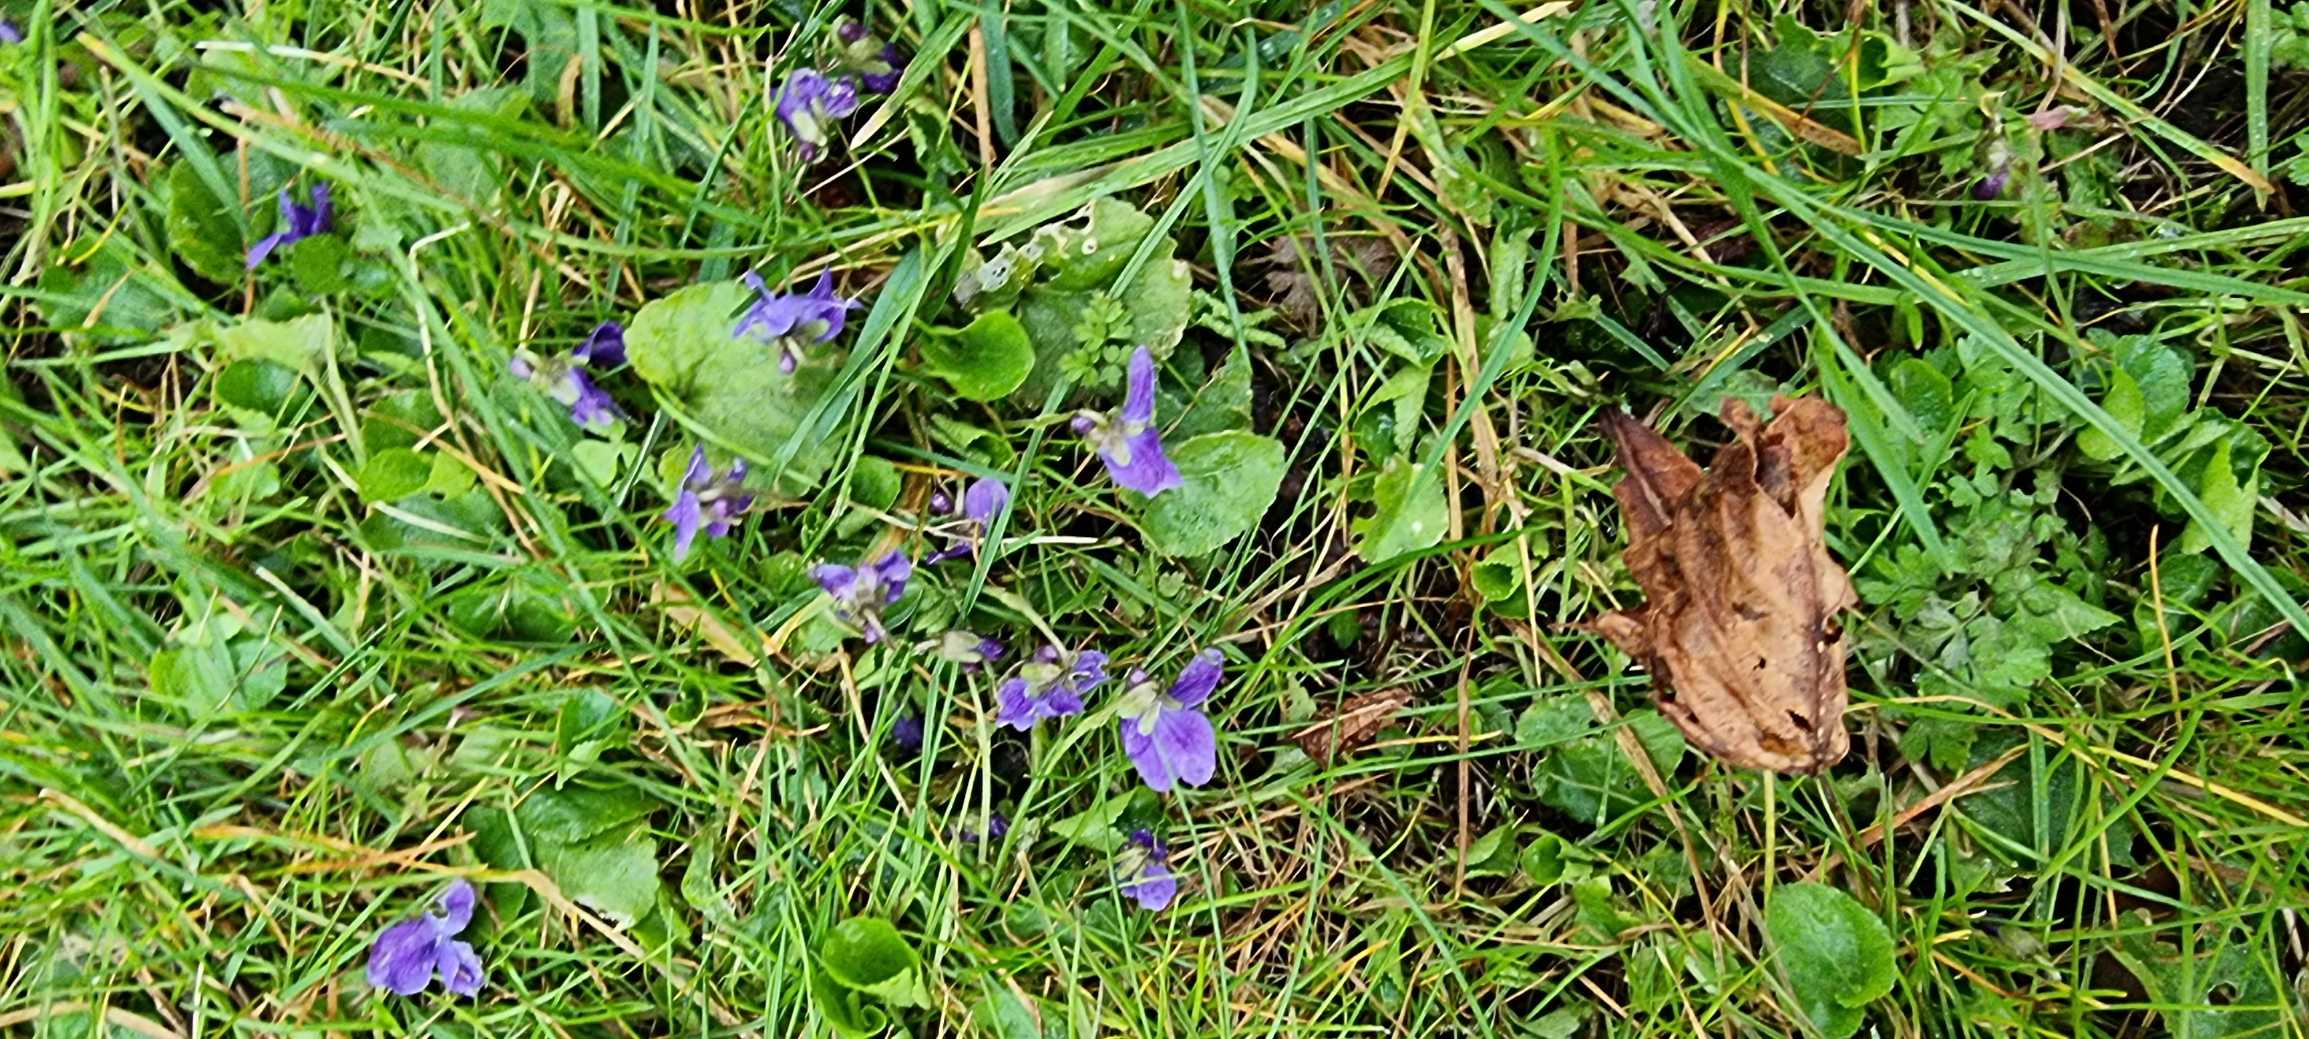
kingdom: Plantae
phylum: Tracheophyta
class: Magnoliopsida
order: Malpighiales
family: Violaceae
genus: Viola
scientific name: Viola odorata
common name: Marts-viol
